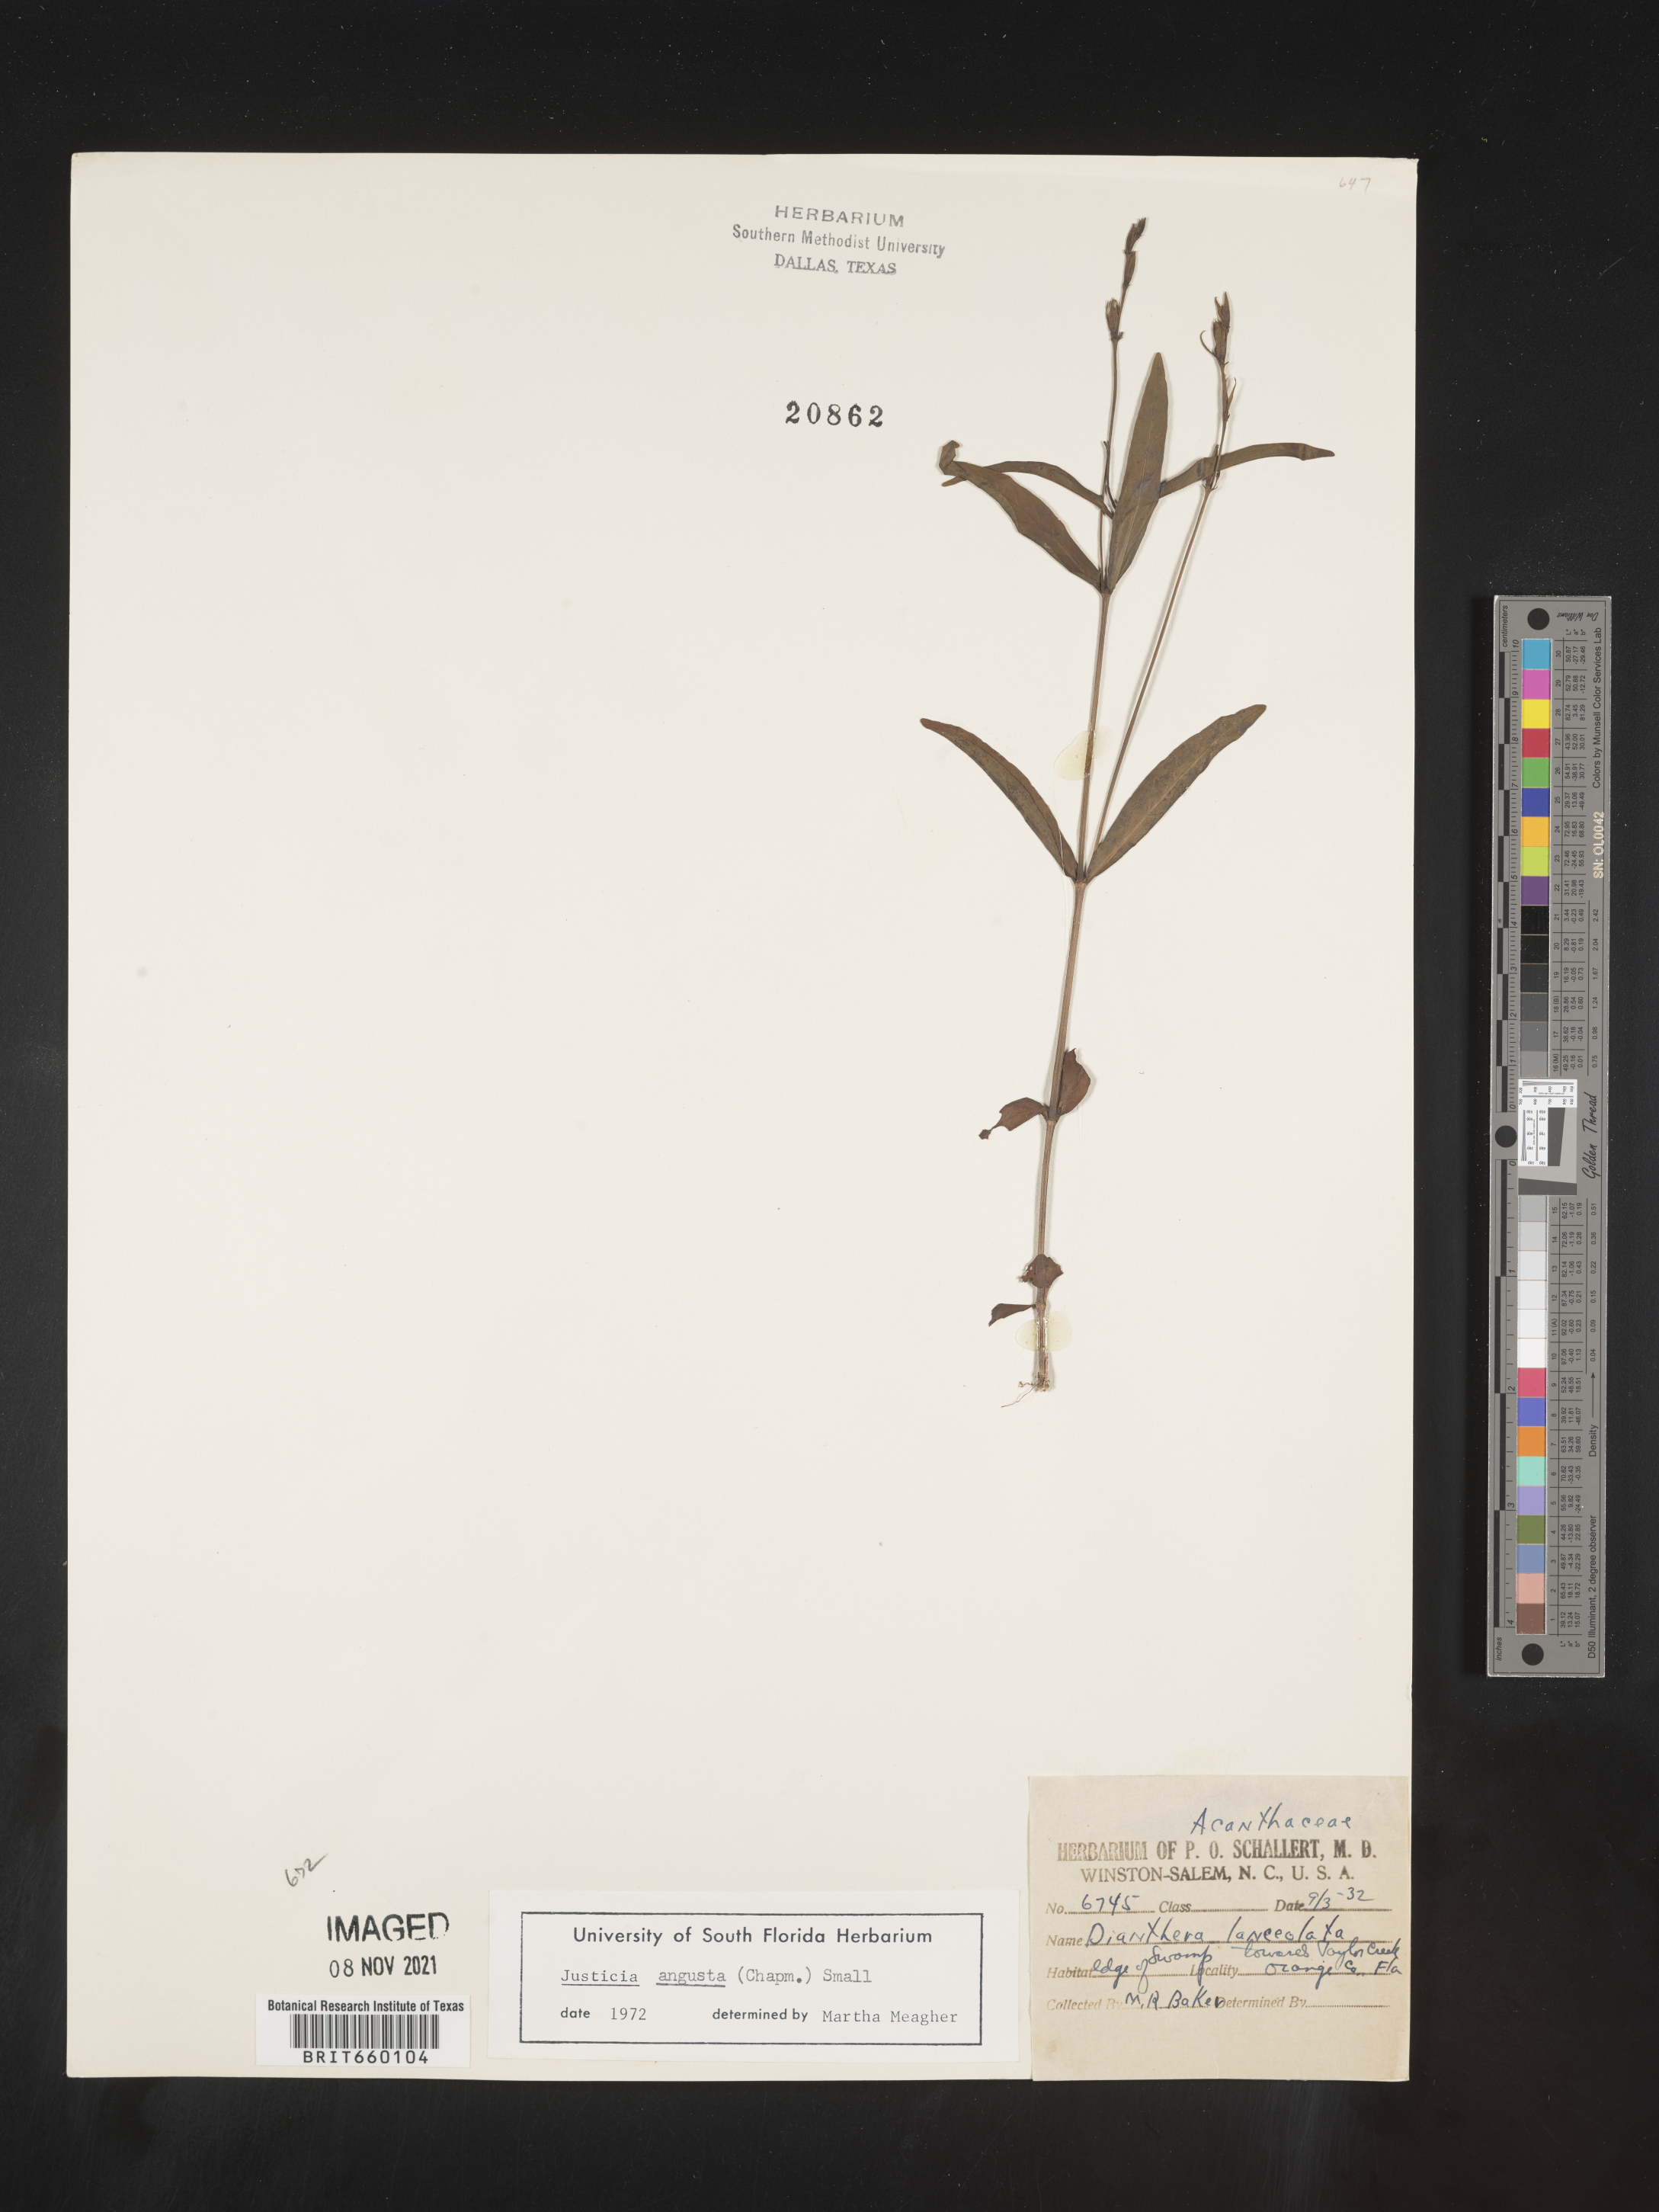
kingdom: Plantae
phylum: Tracheophyta
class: Magnoliopsida
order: Lamiales
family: Acanthaceae
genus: Justicia
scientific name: Justicia
